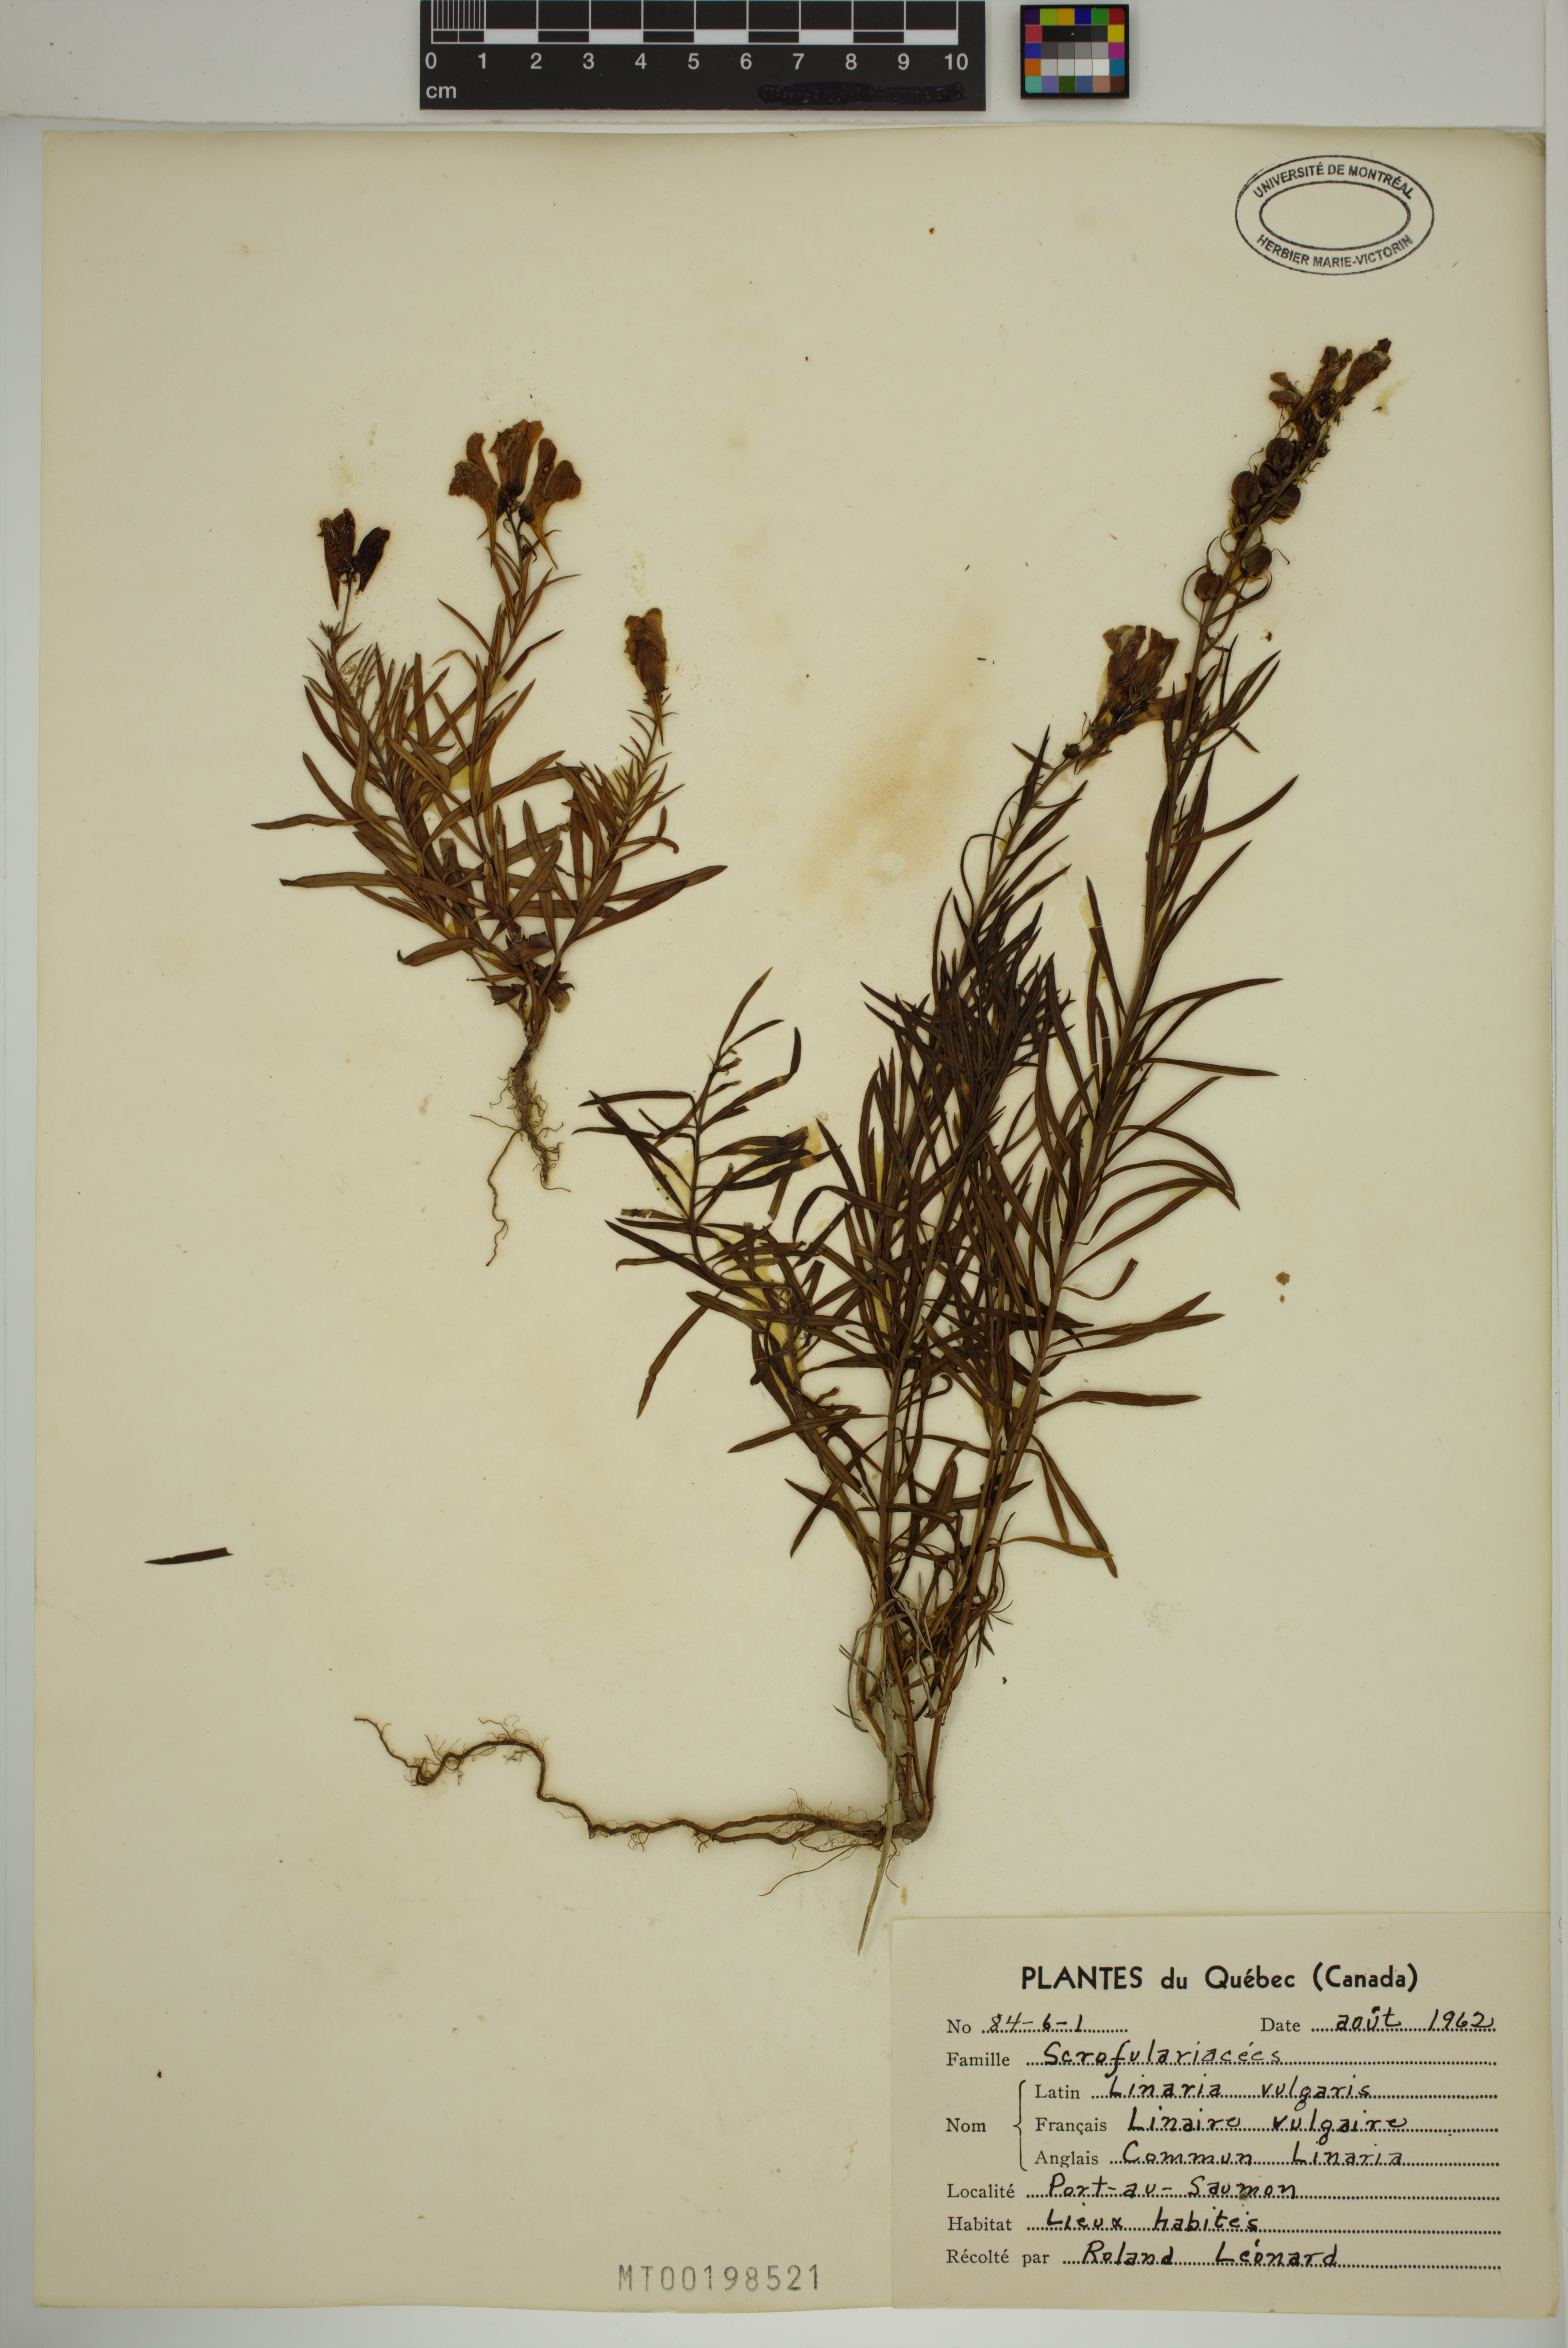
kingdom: Plantae
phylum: Tracheophyta
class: Magnoliopsida
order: Lamiales
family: Plantaginaceae
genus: Linaria
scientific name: Linaria vulgaris
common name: Butter and eggs
